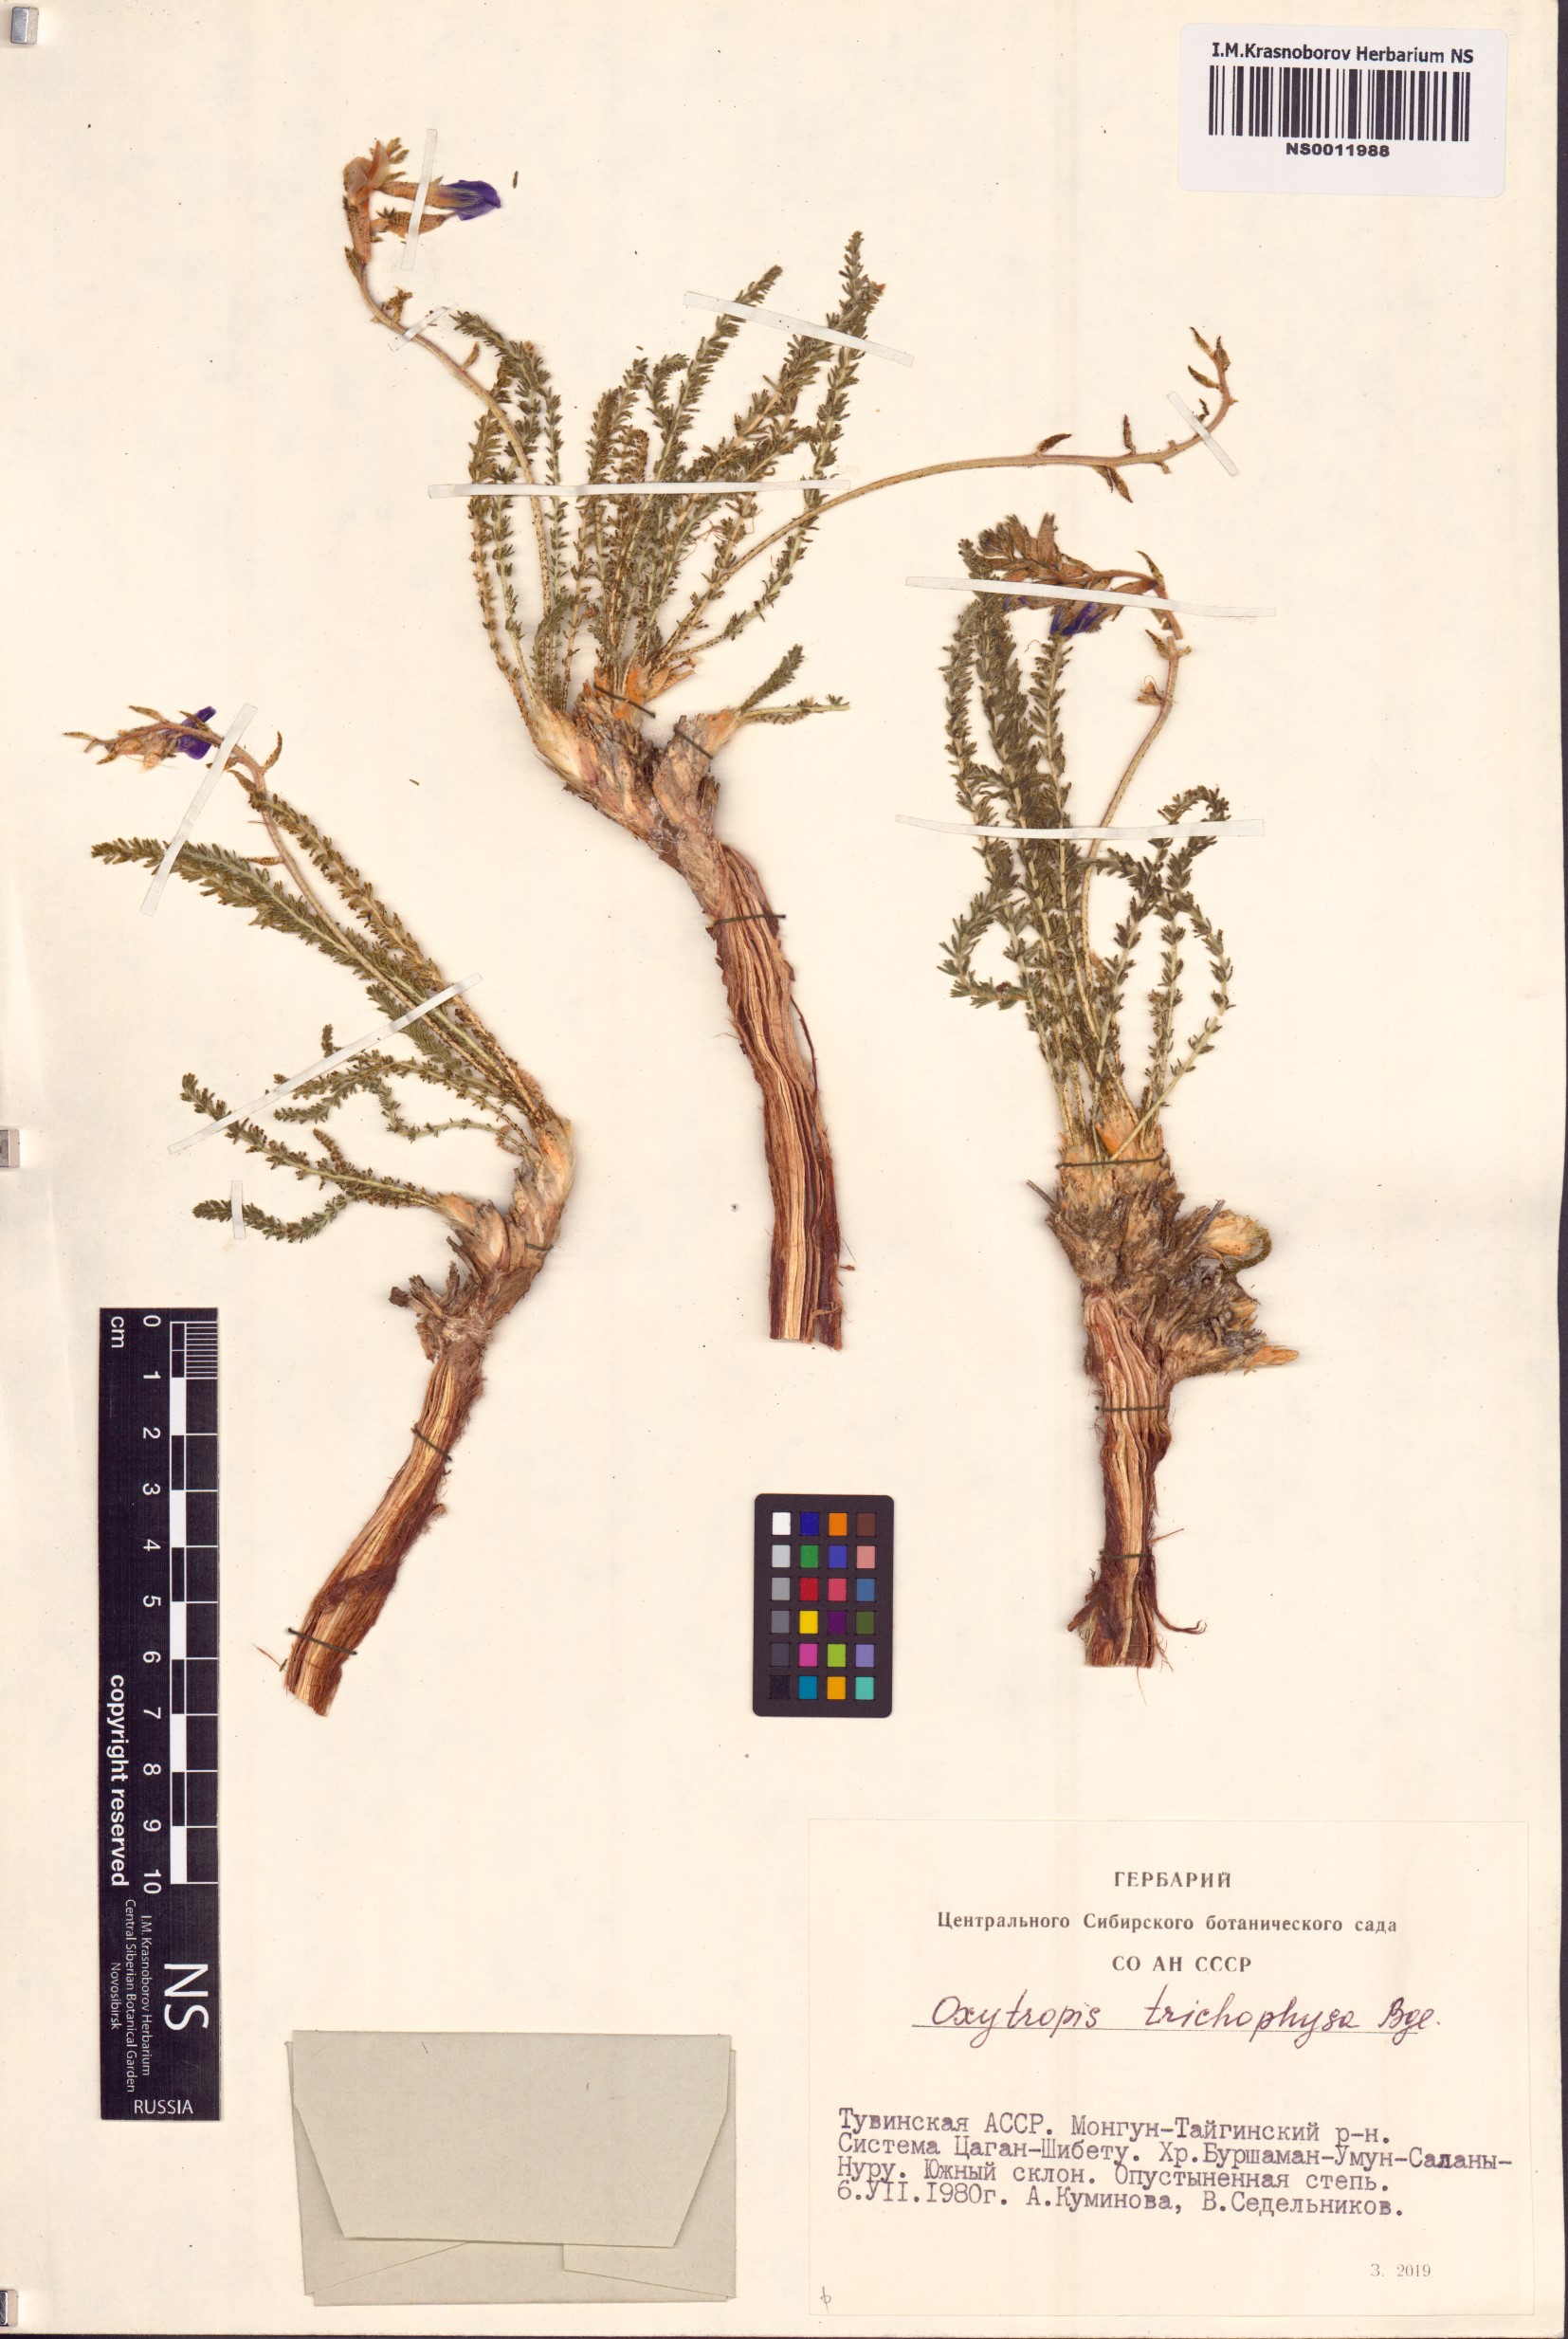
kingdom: Plantae
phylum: Tracheophyta
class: Magnoliopsida
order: Fabales
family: Fabaceae
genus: Oxytropis
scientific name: Oxytropis trichophysa
